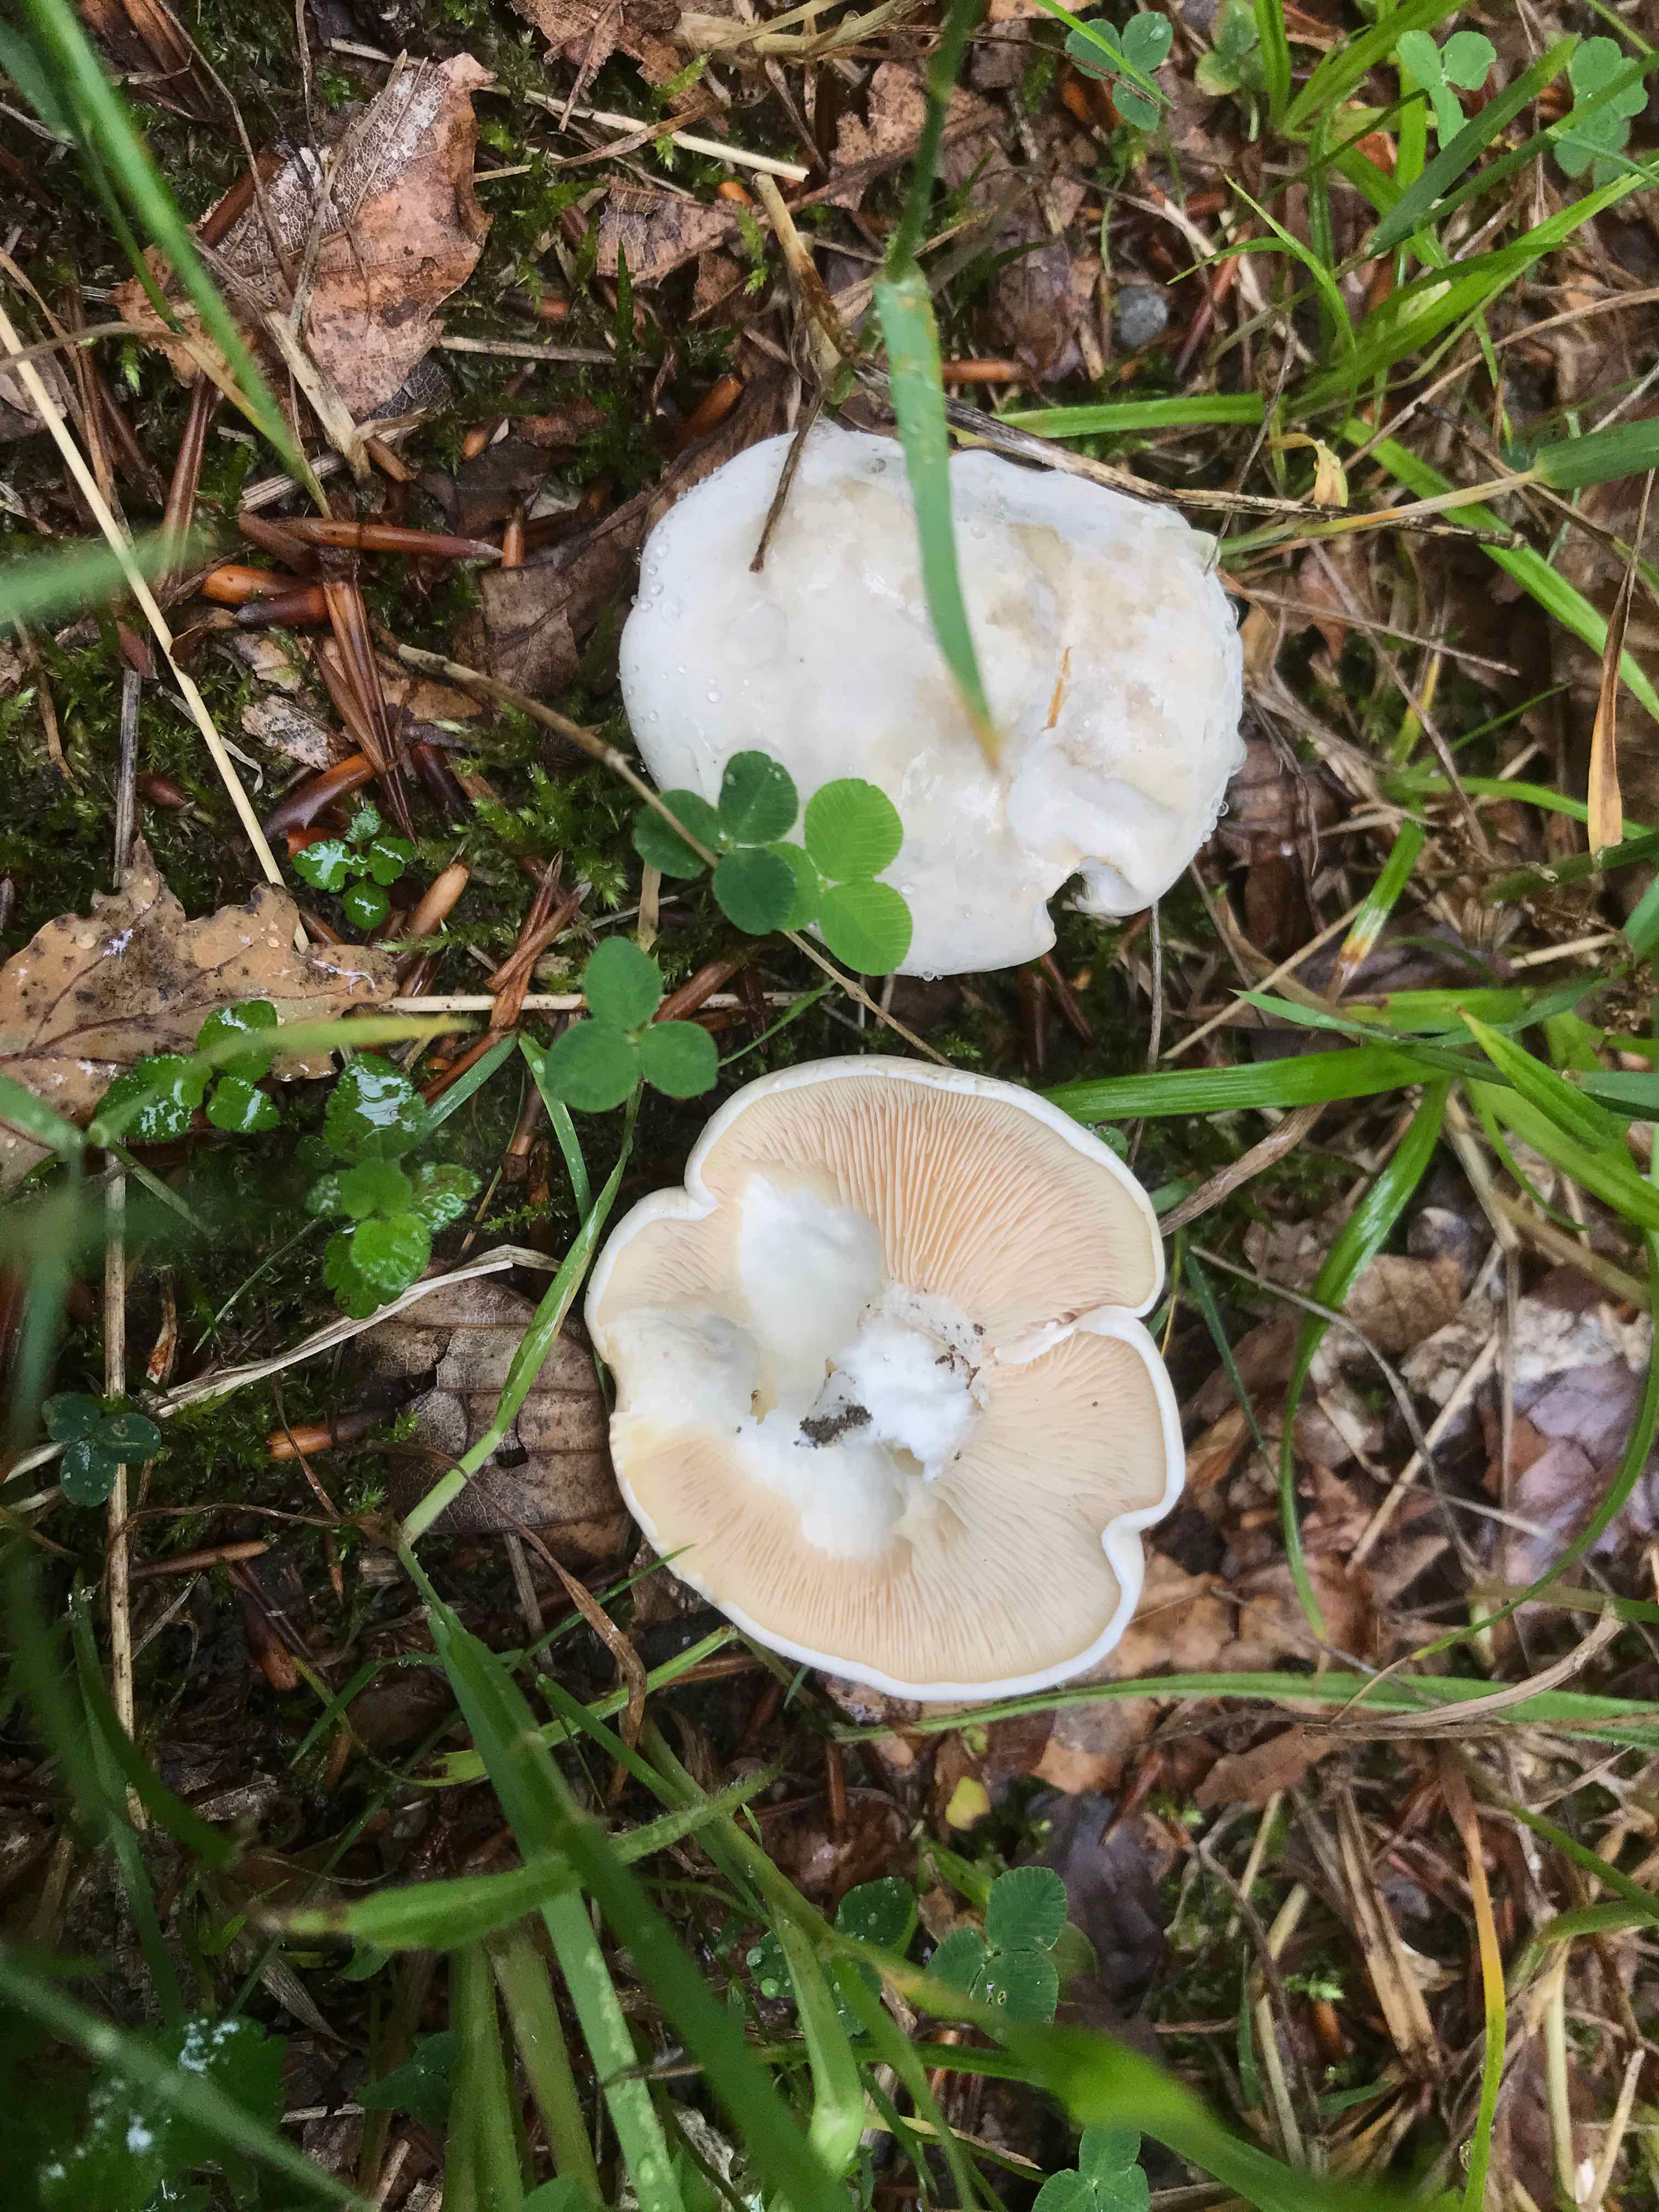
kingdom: Fungi
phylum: Basidiomycota
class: Agaricomycetes
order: Agaricales
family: Entolomataceae
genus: Clitopilus
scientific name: Clitopilus prunulus
